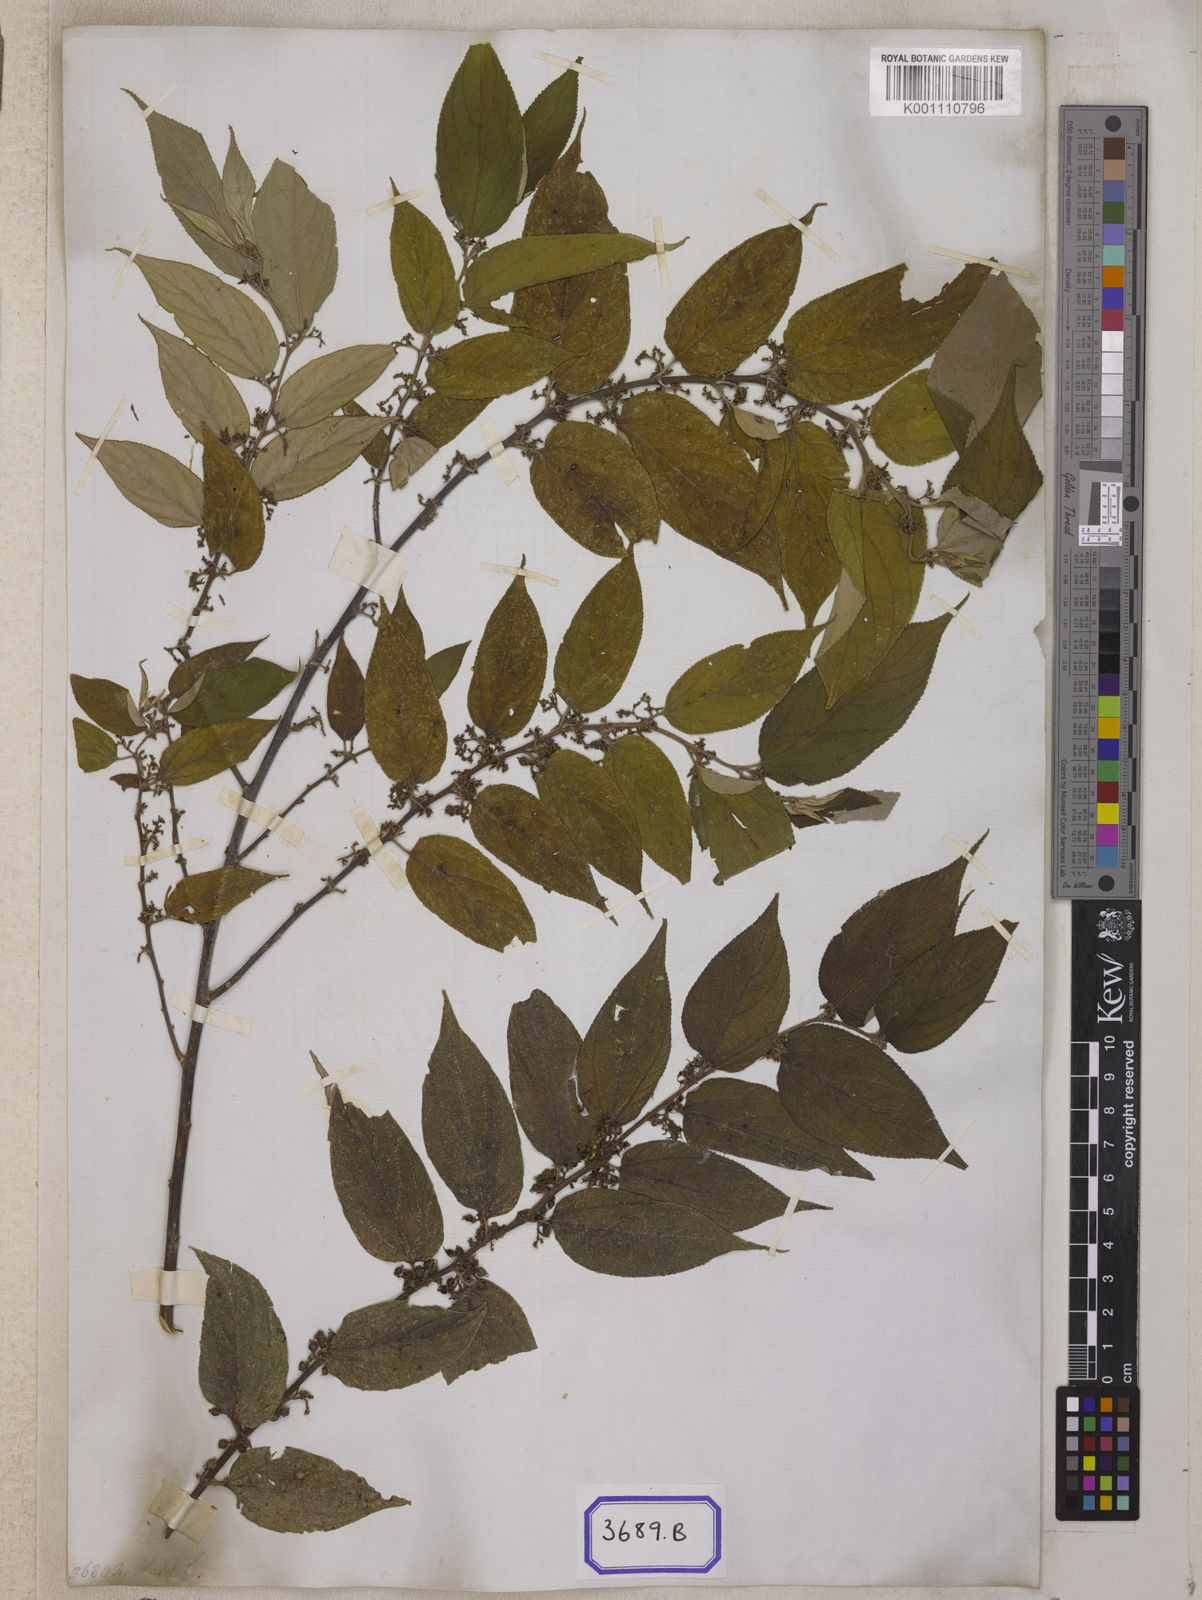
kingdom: Plantae
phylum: Tracheophyta
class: Magnoliopsida
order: Rosales
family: Cannabaceae
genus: Trema
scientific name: Trema orientale
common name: Indian charcoal tree
